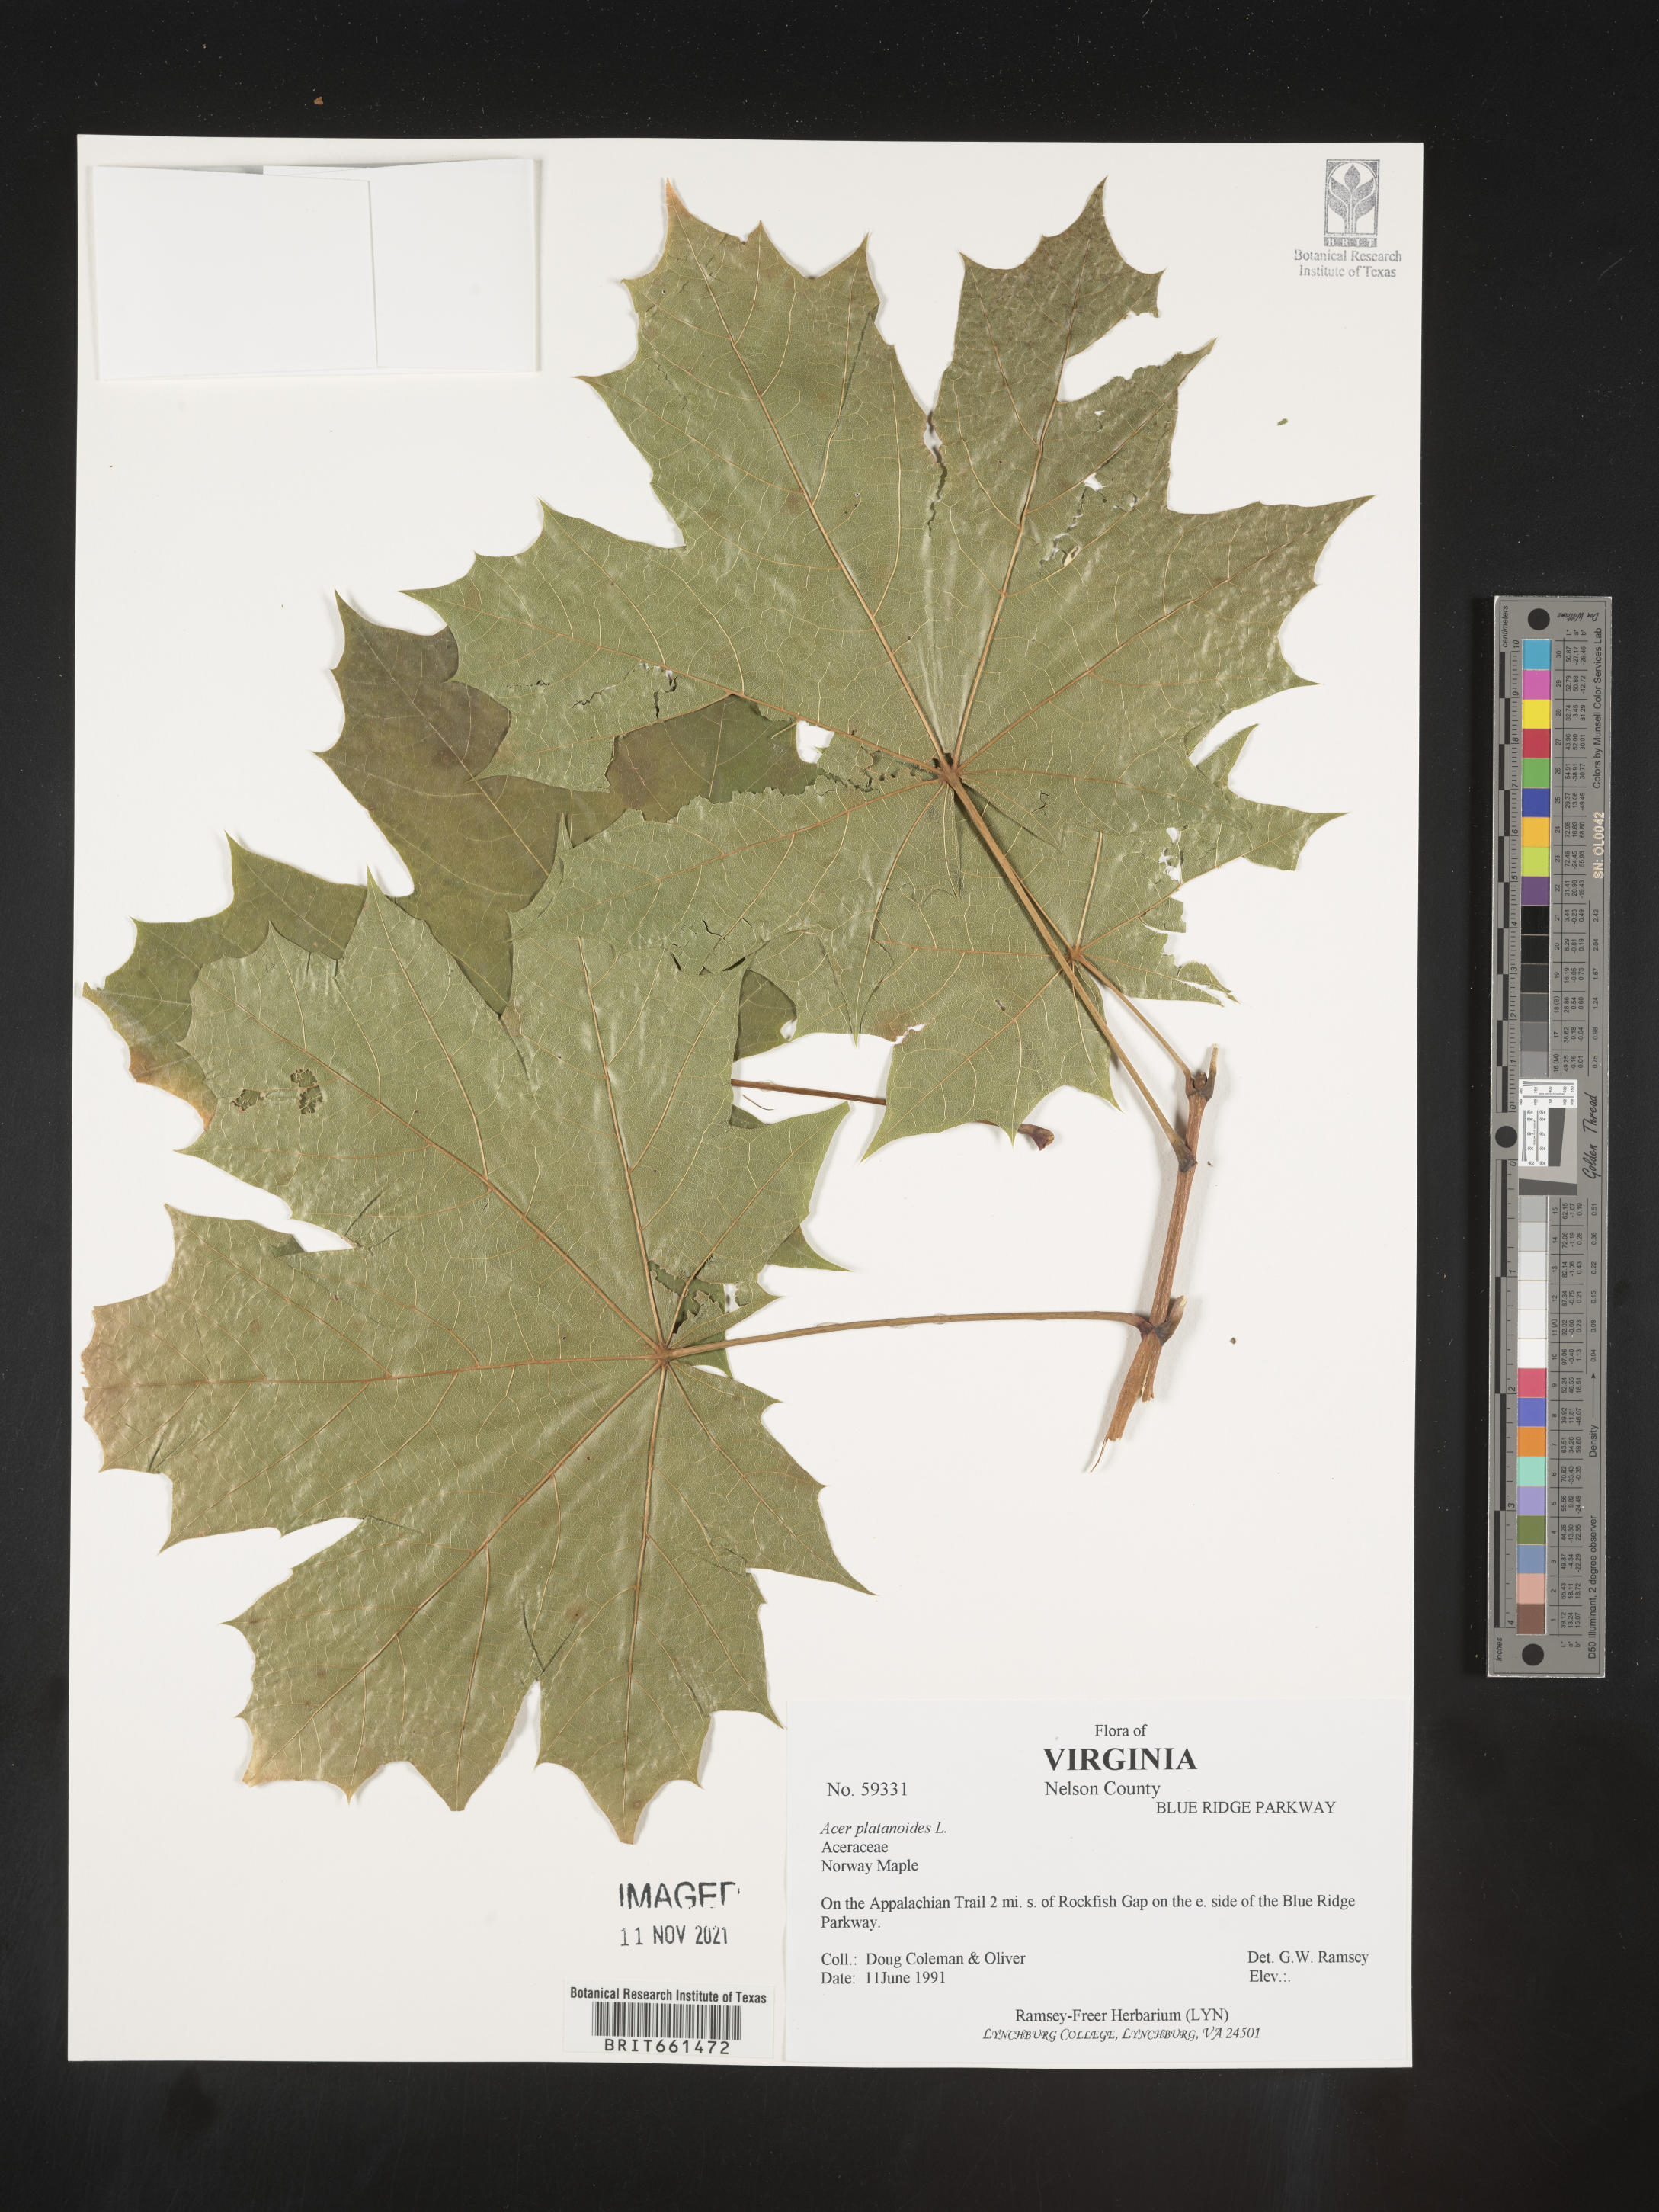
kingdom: Plantae
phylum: Tracheophyta
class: Magnoliopsida
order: Sapindales
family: Sapindaceae
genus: Acer
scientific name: Acer
